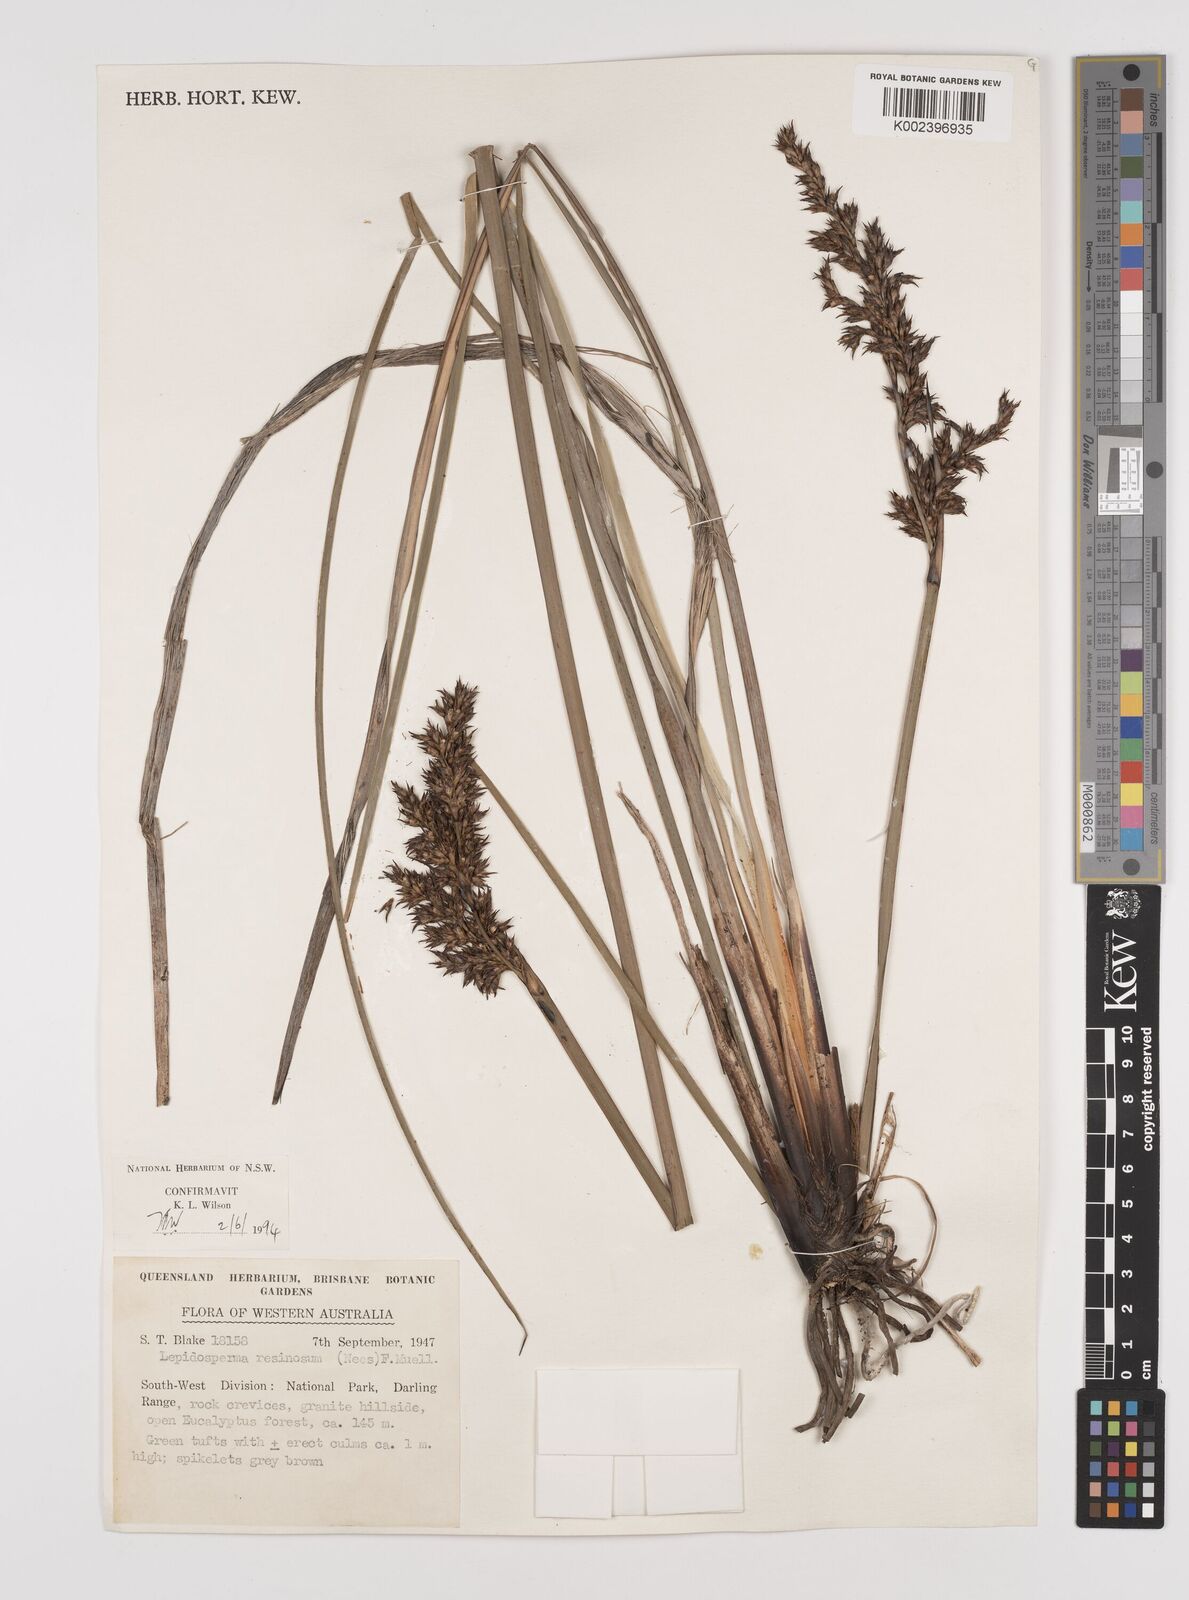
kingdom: Plantae
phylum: Tracheophyta
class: Liliopsida
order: Poales
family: Cyperaceae
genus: Lepidosperma
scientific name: Lepidosperma resinosum
